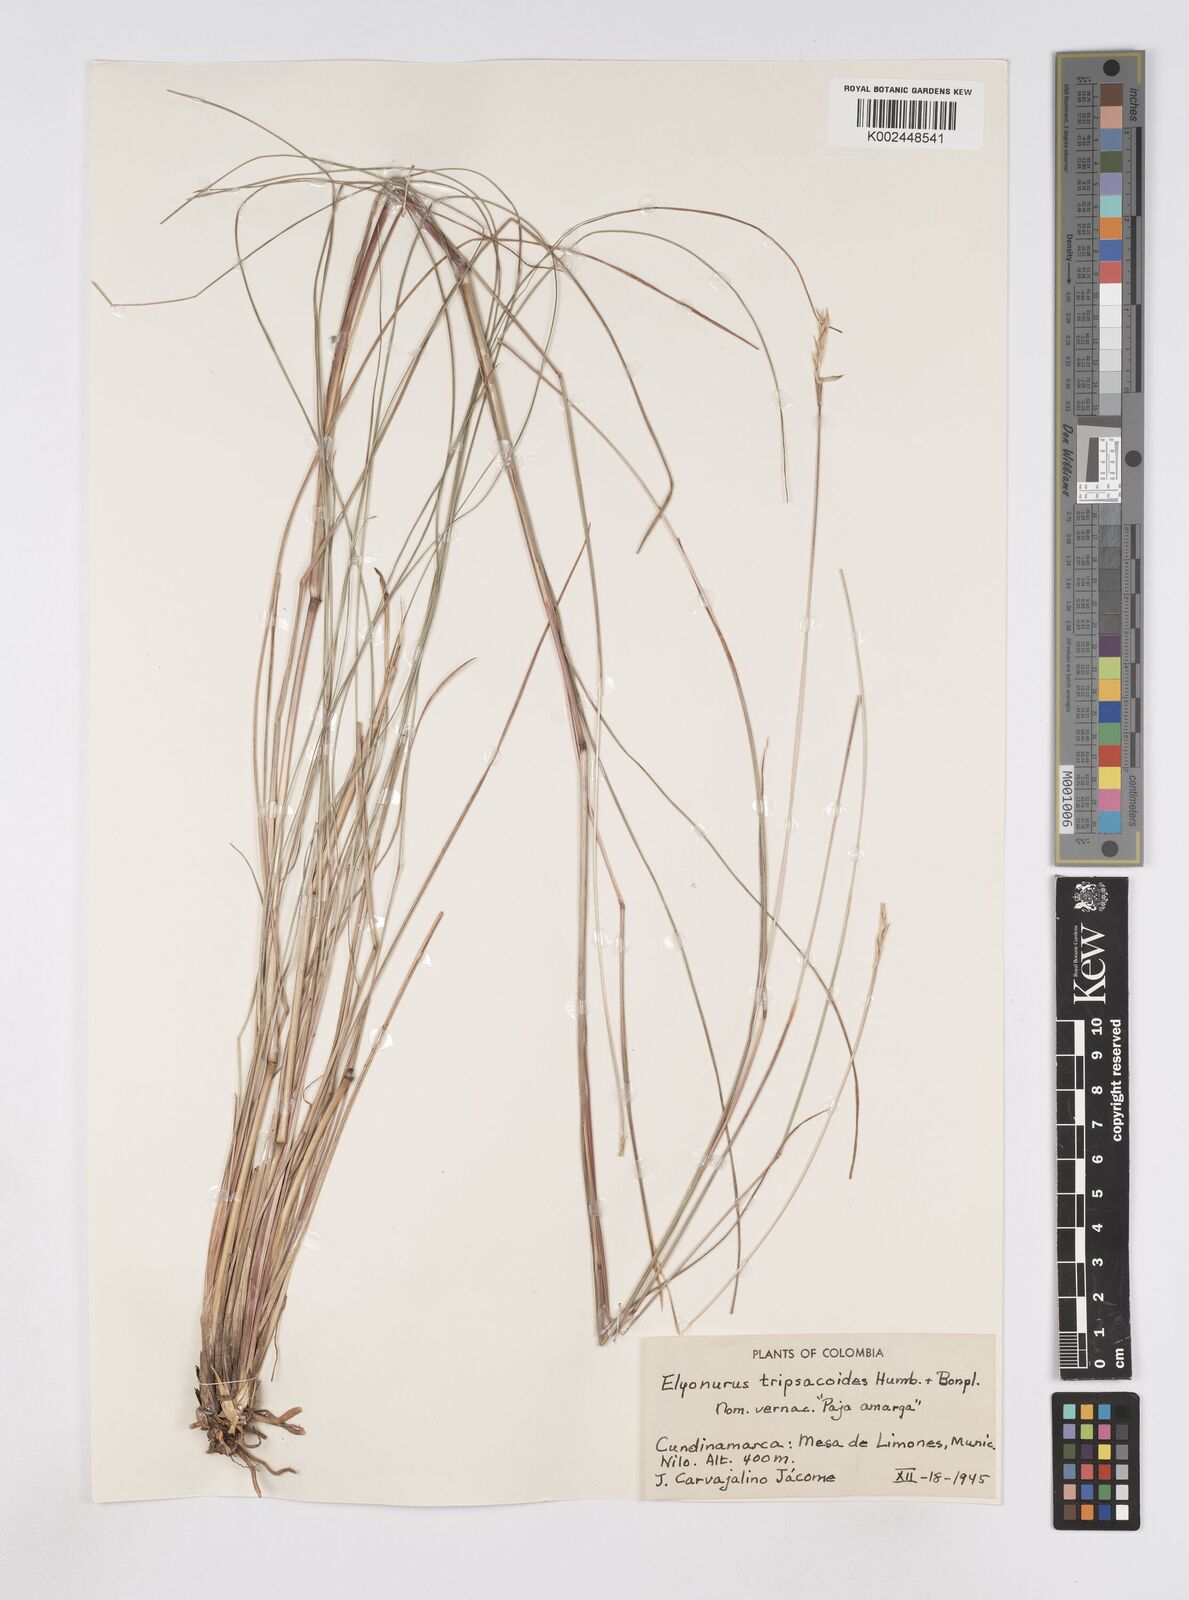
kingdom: Plantae
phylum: Tracheophyta
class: Liliopsida
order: Poales
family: Poaceae
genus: Elionurus
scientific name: Elionurus muticus
